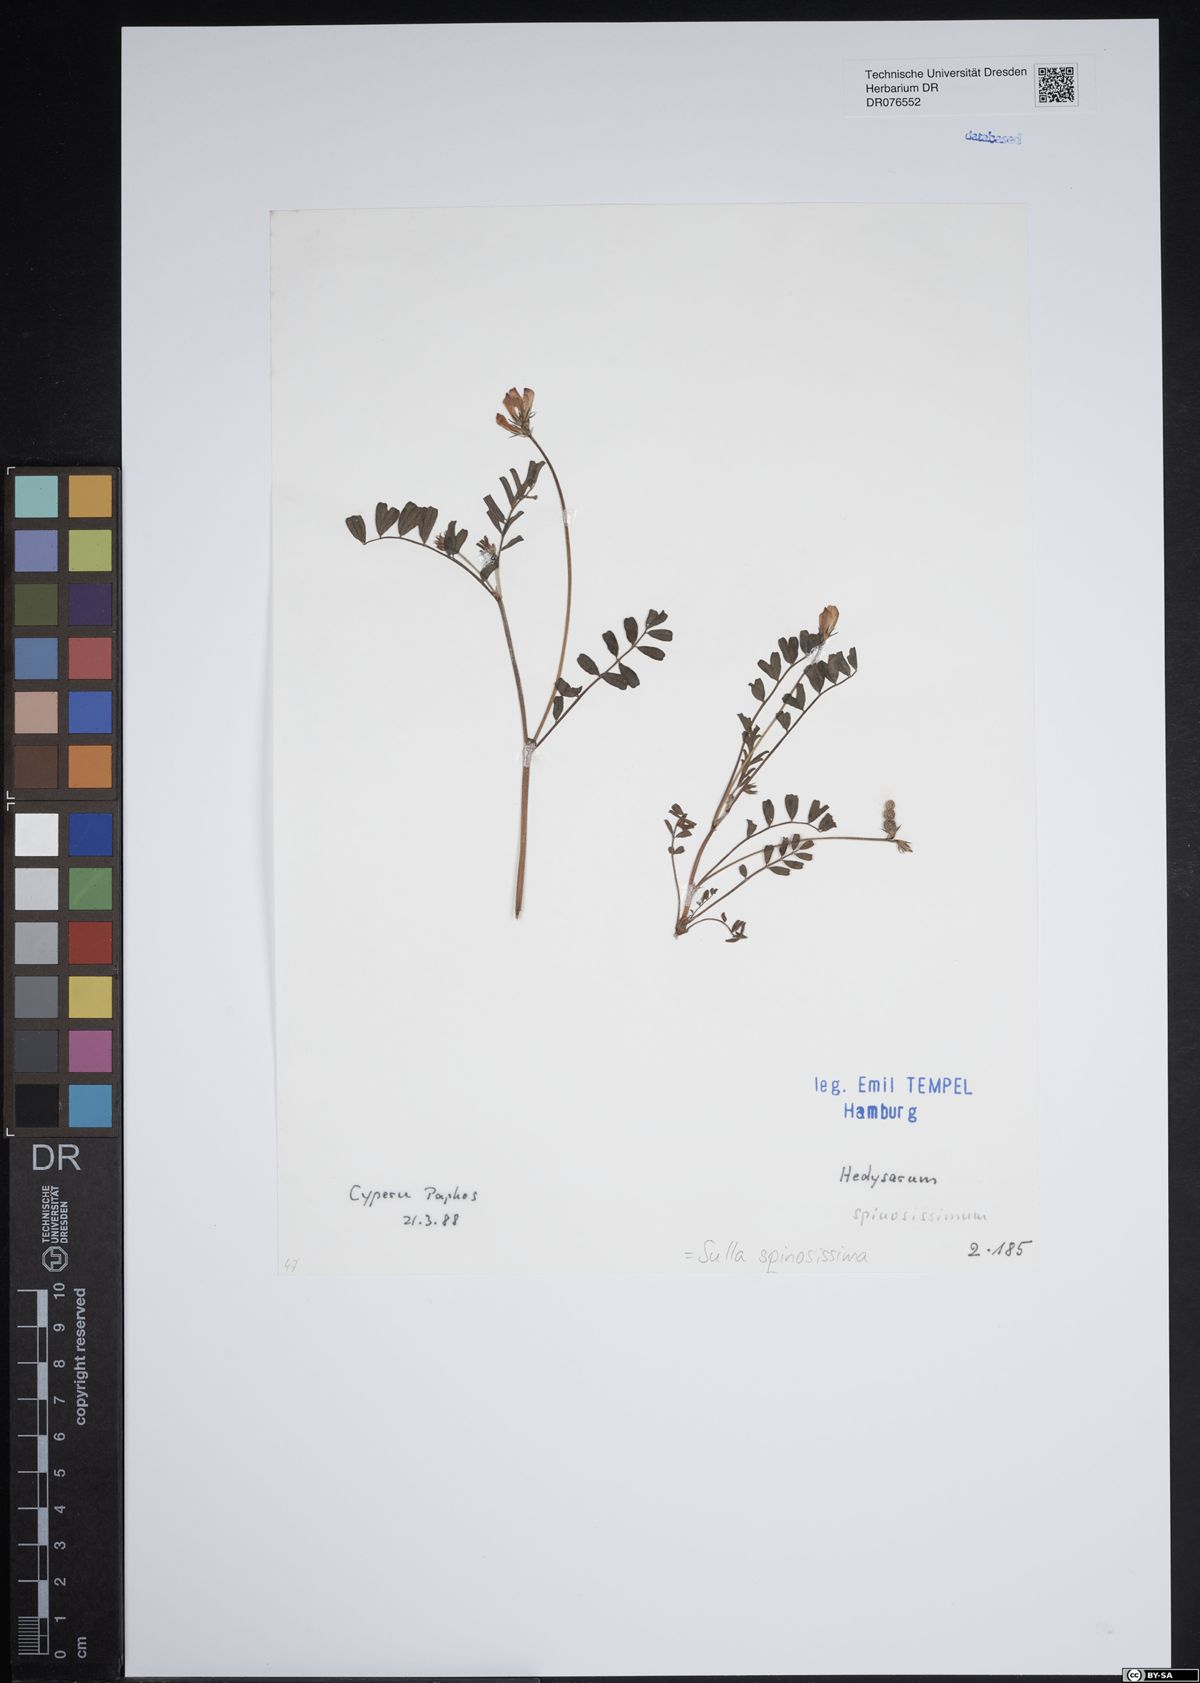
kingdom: Plantae
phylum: Tracheophyta
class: Magnoliopsida
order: Fabales
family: Fabaceae
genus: Sulla
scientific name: Sulla spinosissima
